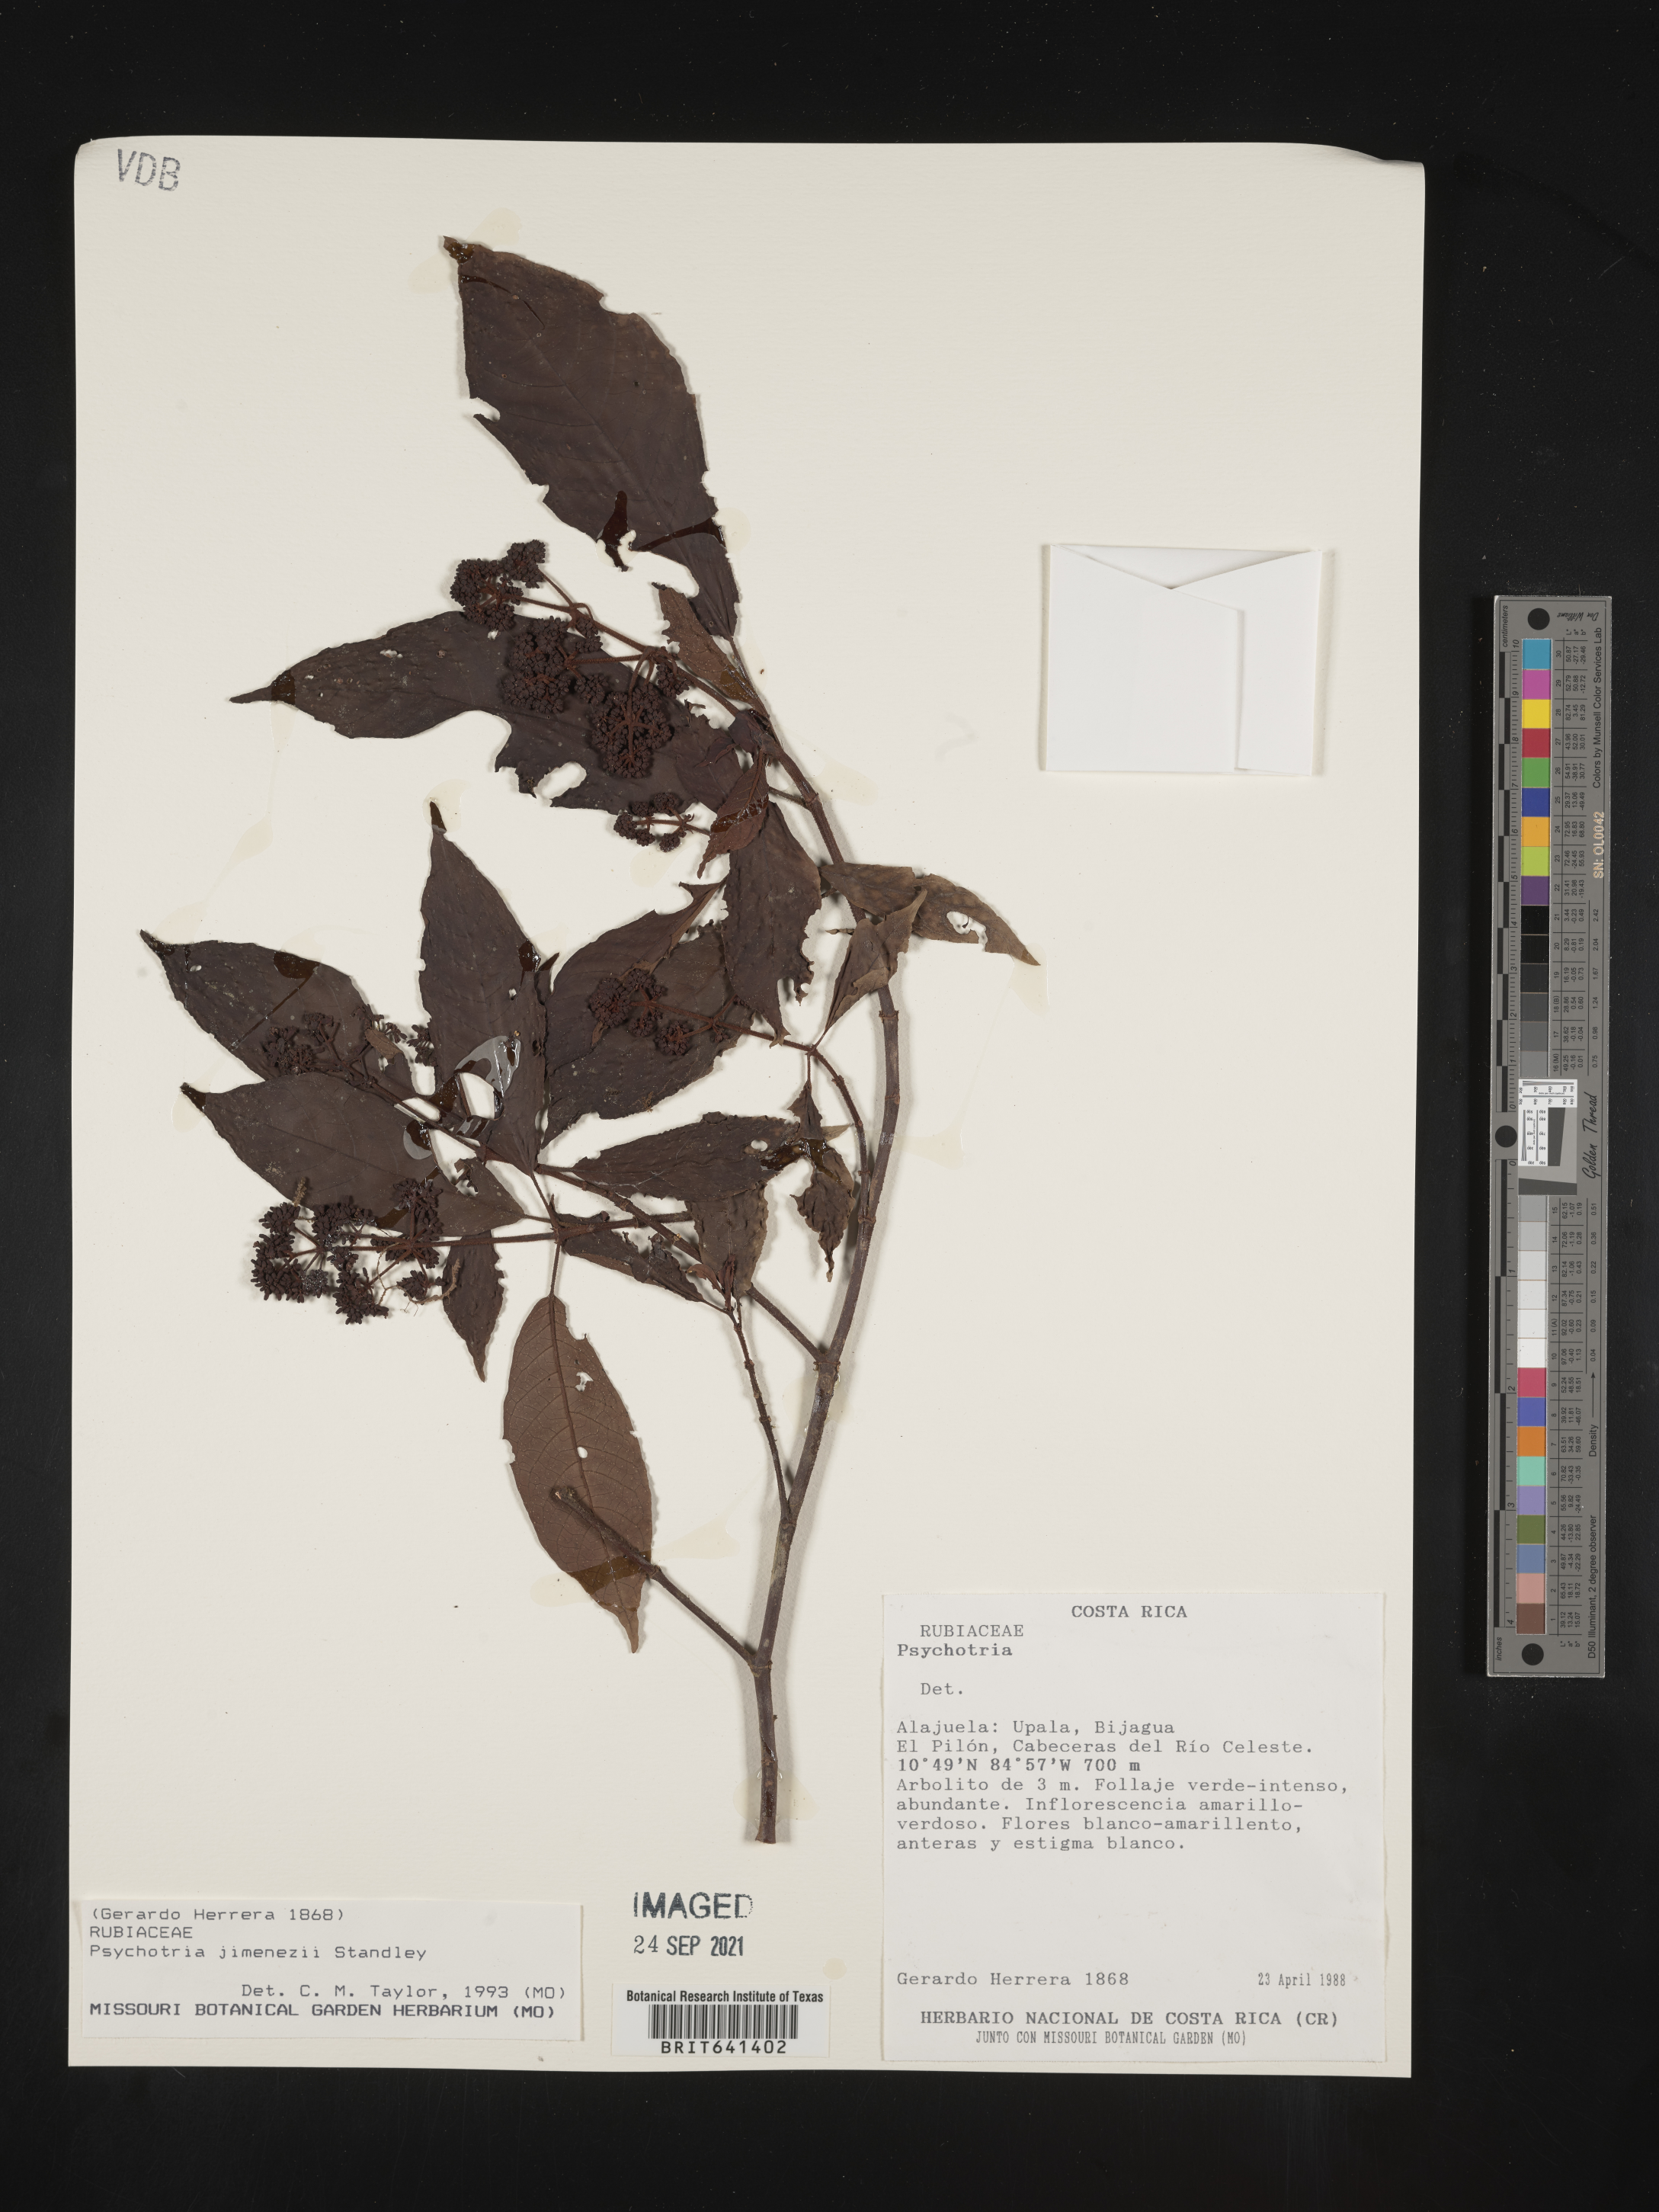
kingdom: Plantae
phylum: Tracheophyta
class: Magnoliopsida
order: Gentianales
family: Rubiaceae
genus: Psychotria
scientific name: Psychotria
